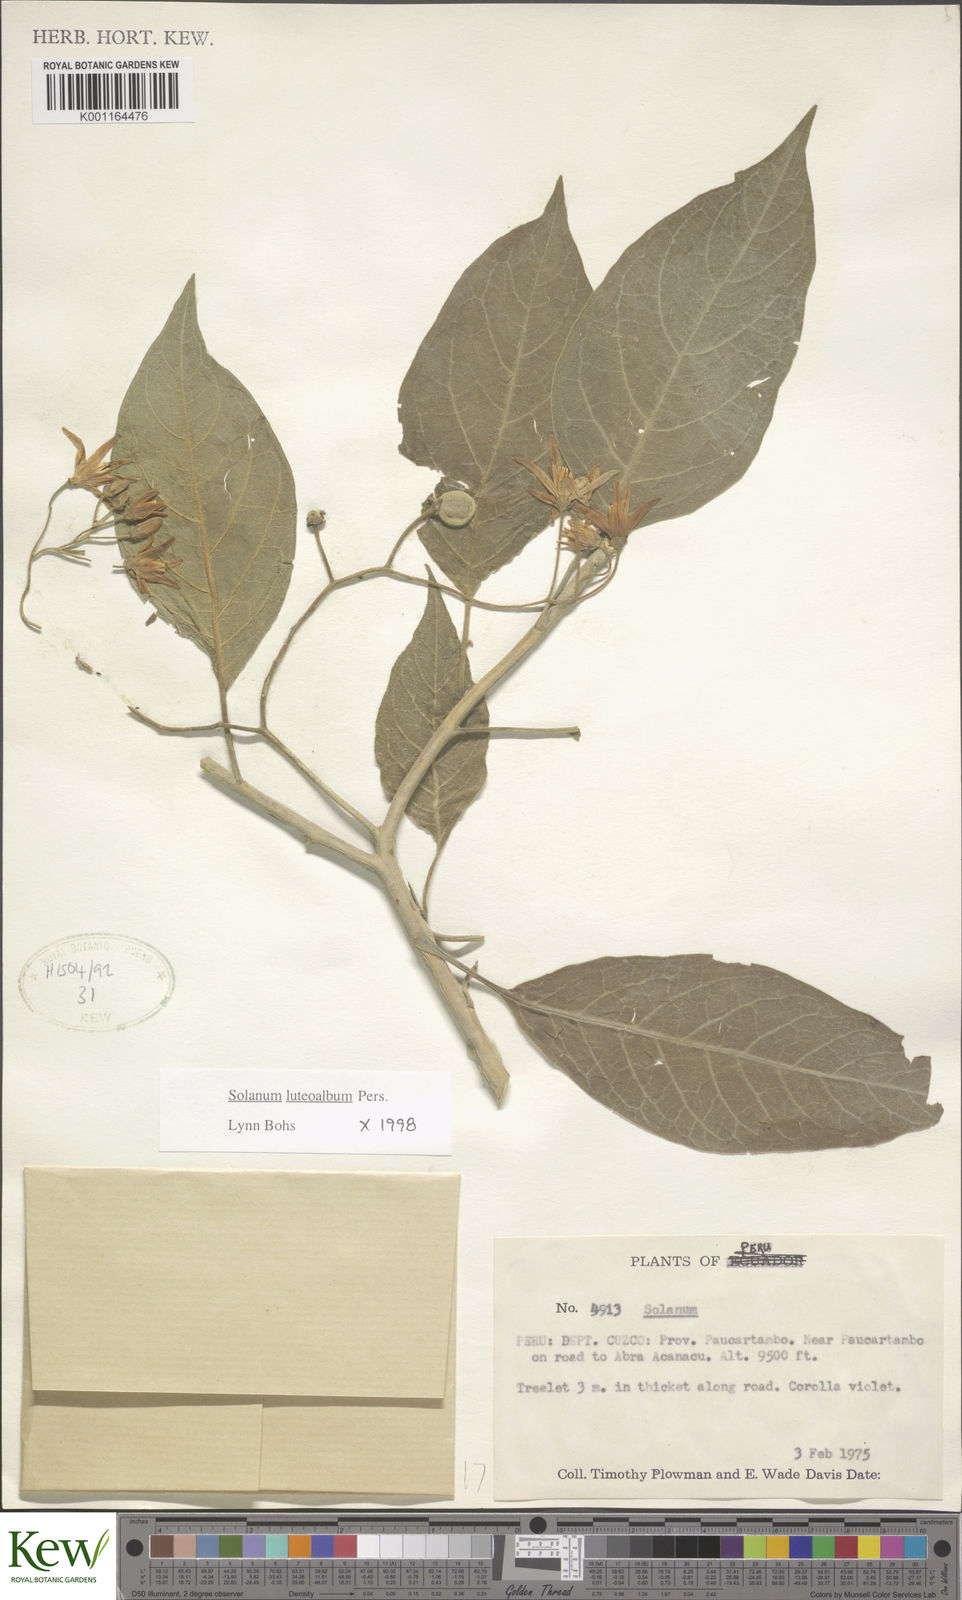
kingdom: Plantae
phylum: Tracheophyta
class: Magnoliopsida
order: Solanales
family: Solanaceae
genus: Solanum
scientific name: Solanum luteoalbum
